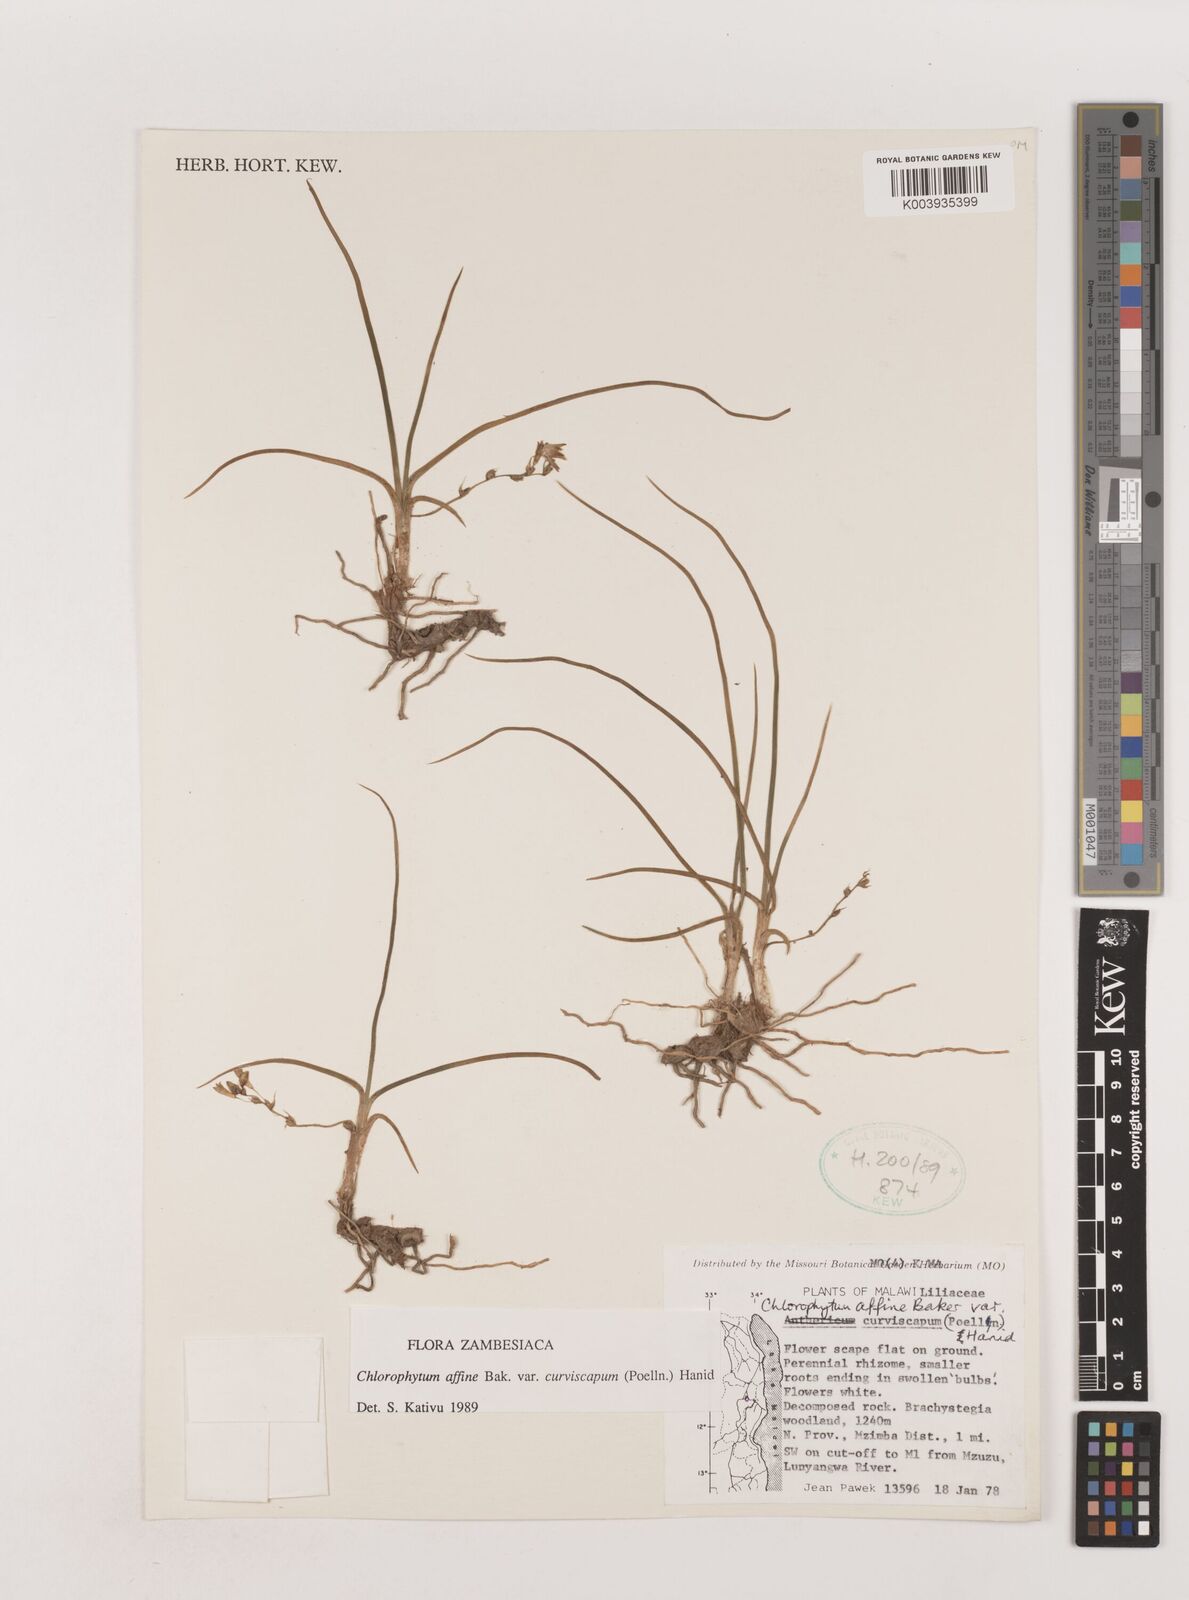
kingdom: Plantae
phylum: Tracheophyta
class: Liliopsida
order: Asparagales
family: Asparagaceae
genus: Chlorophytum
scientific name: Chlorophytum tordense
